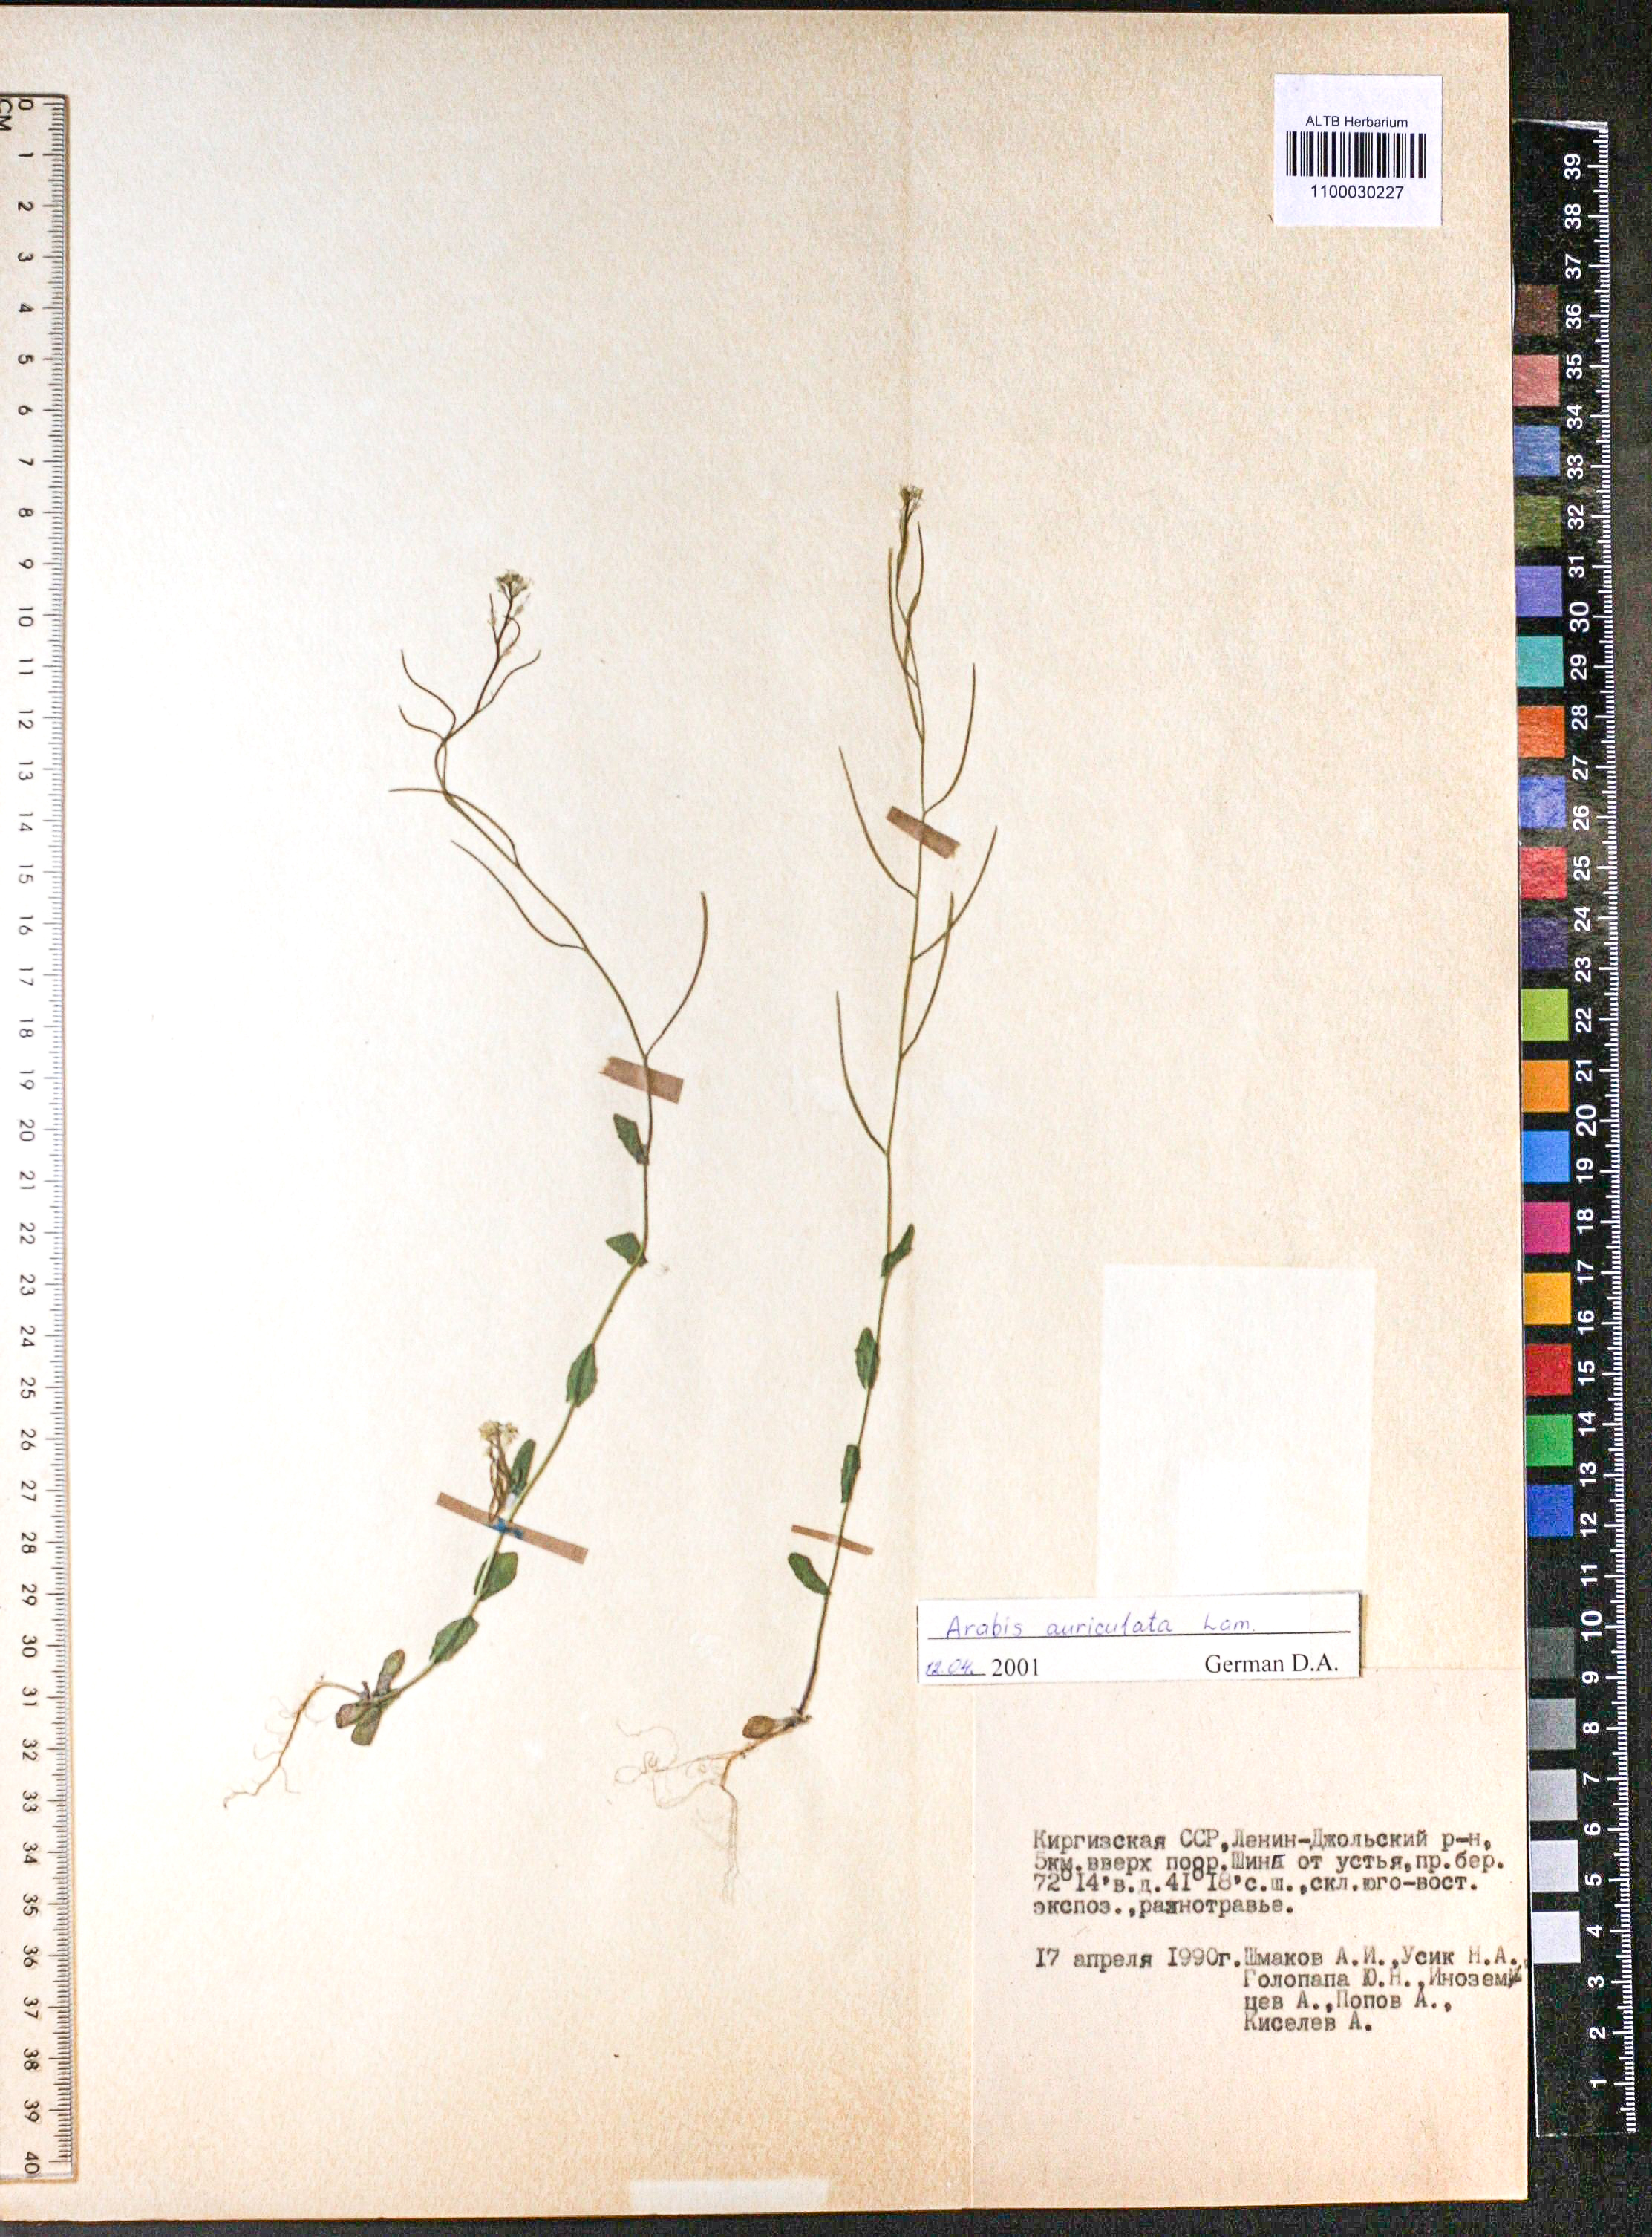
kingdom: Plantae
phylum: Tracheophyta
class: Magnoliopsida
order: Brassicales
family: Brassicaceae
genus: Arabis
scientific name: Arabis auriculata
